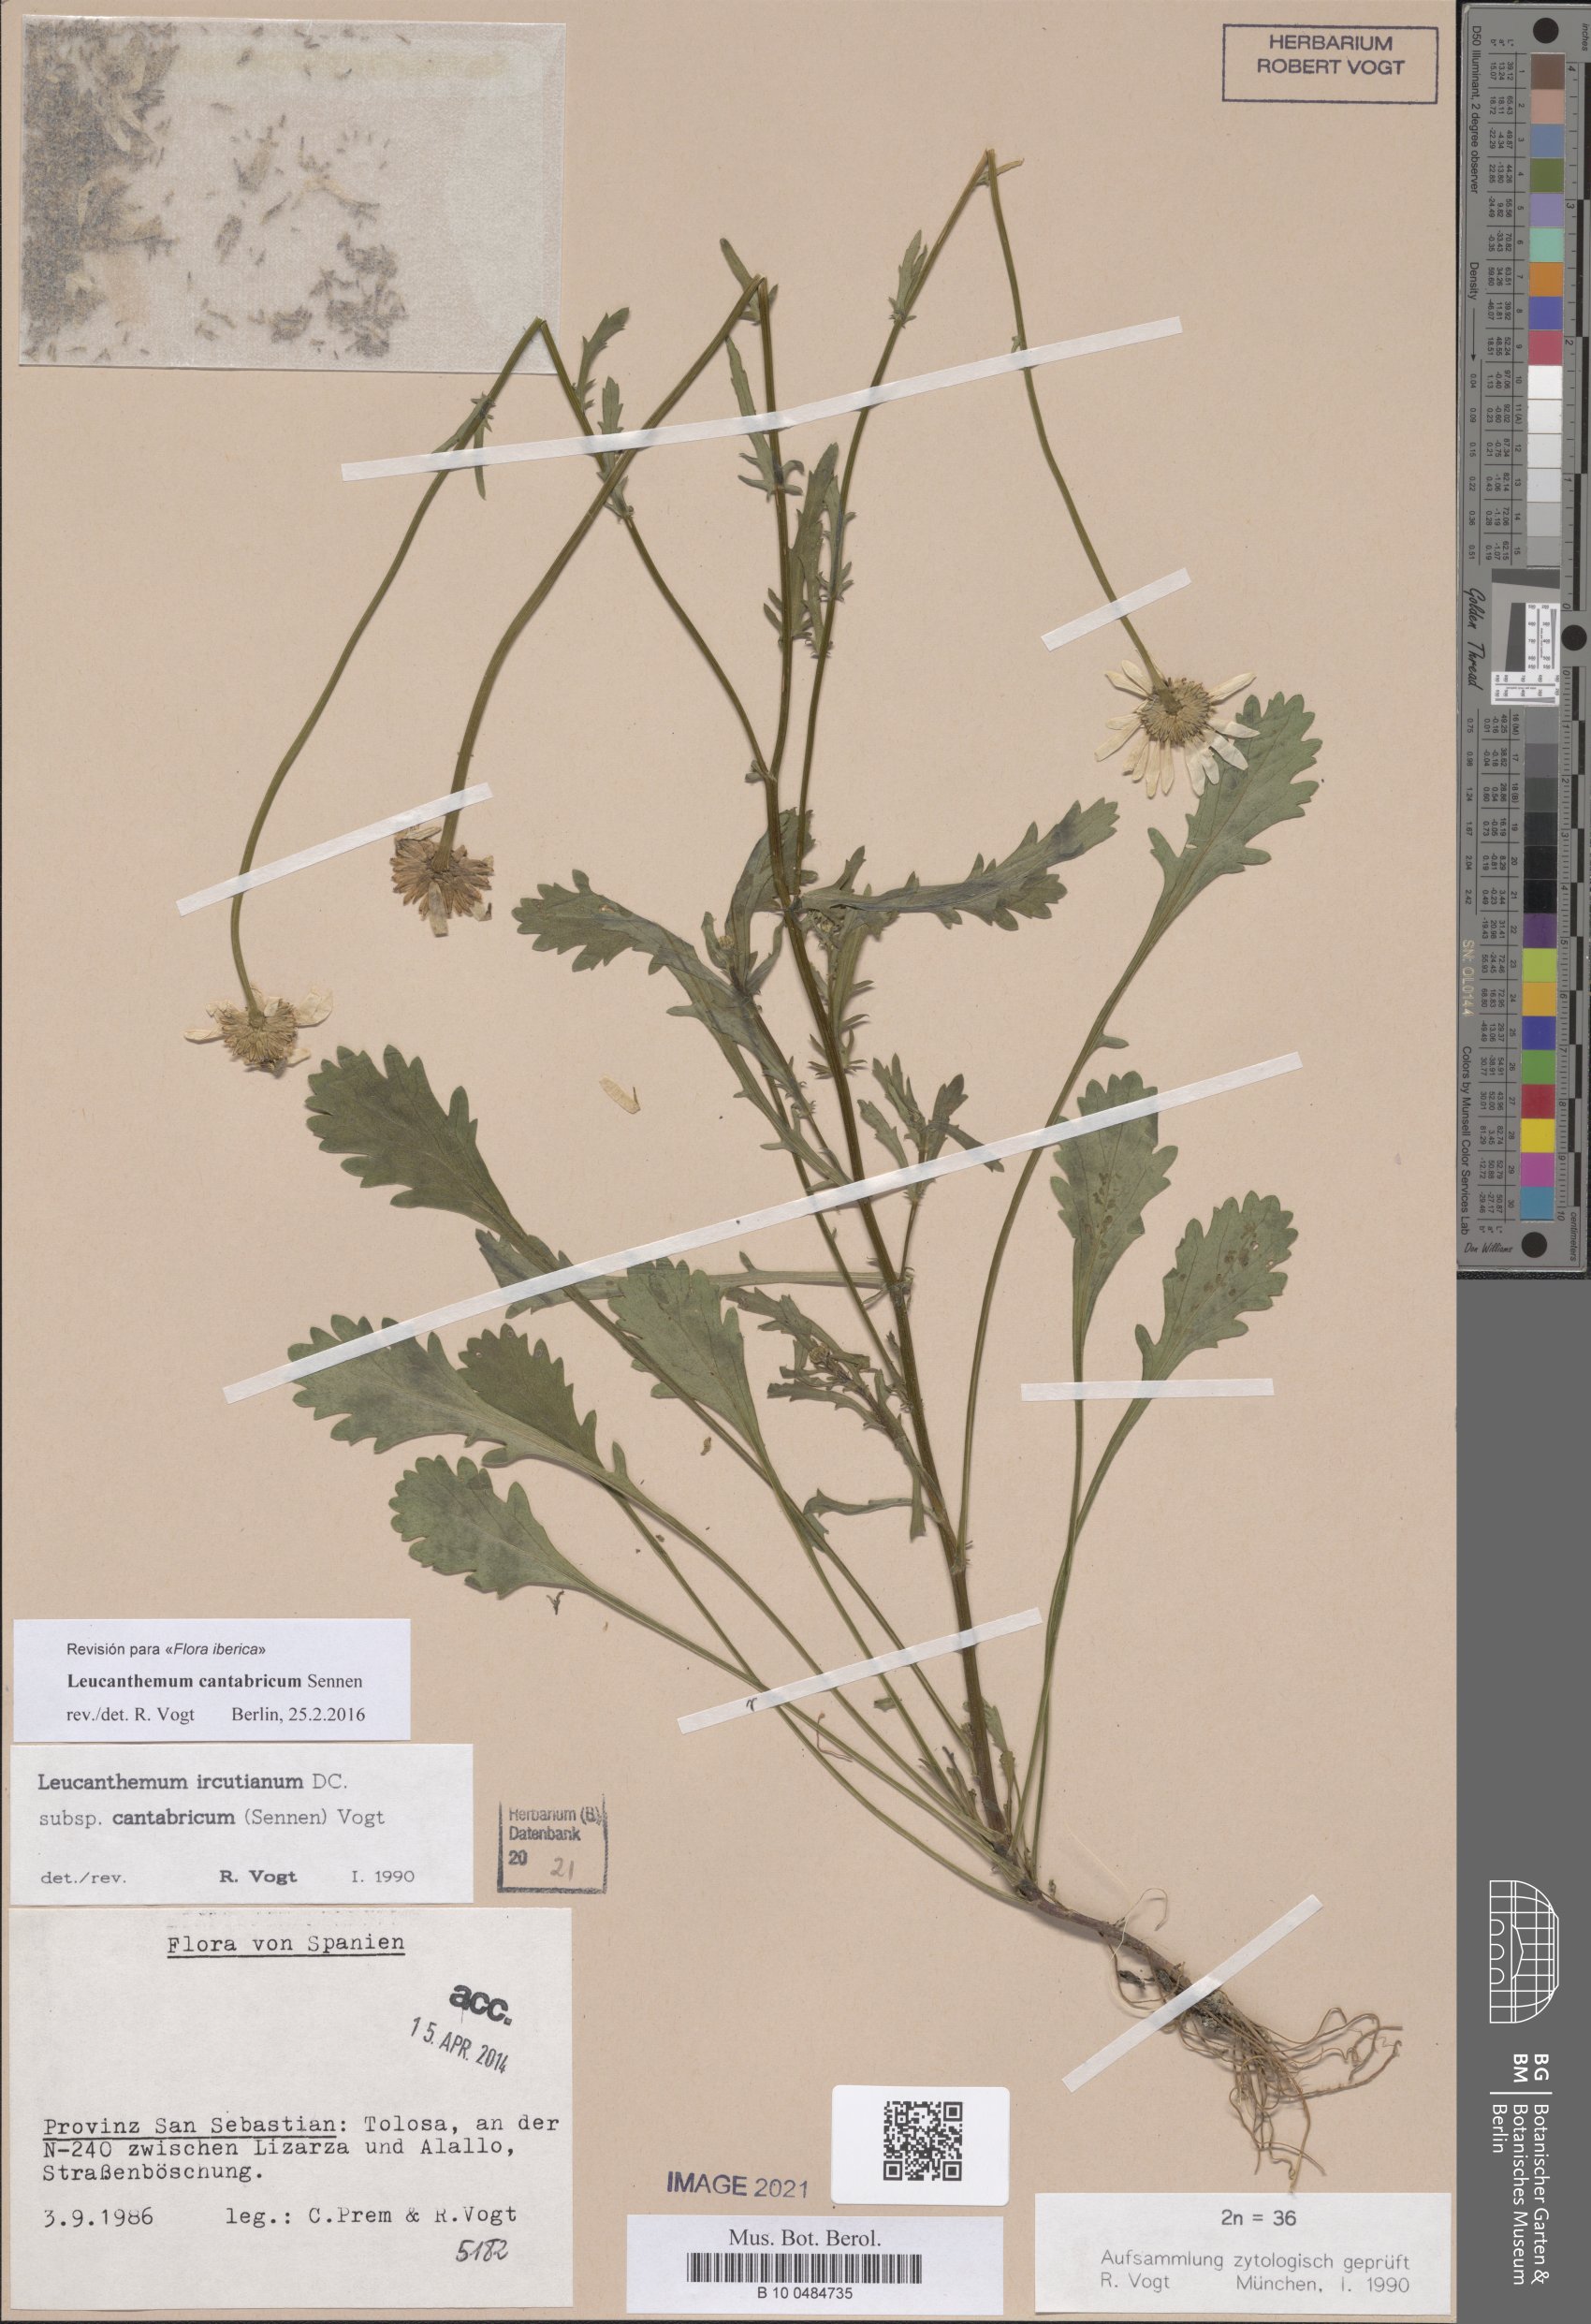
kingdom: Plantae
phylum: Tracheophyta
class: Magnoliopsida
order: Asterales
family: Asteraceae
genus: Leucanthemum
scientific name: Leucanthemum cantabricum
